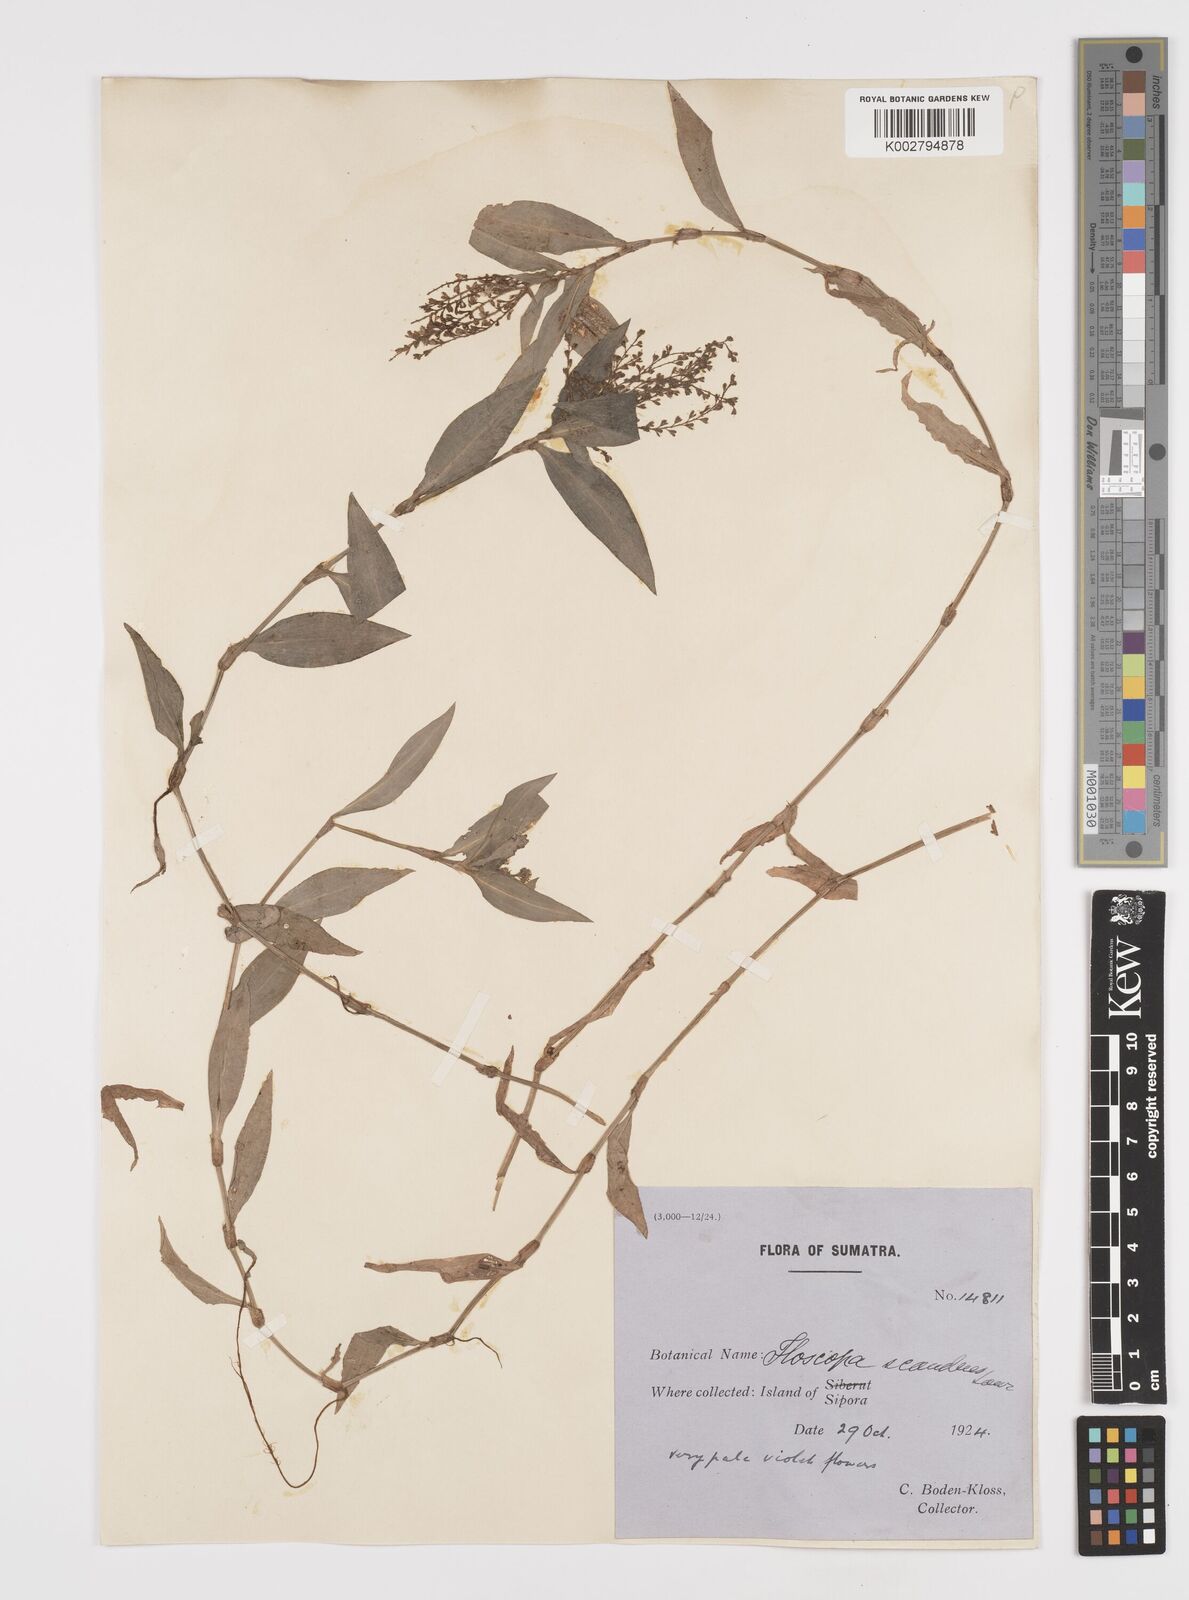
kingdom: Plantae
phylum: Tracheophyta
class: Liliopsida
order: Commelinales
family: Commelinaceae
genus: Floscopa
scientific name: Floscopa scandens
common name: Climbing flower cup
